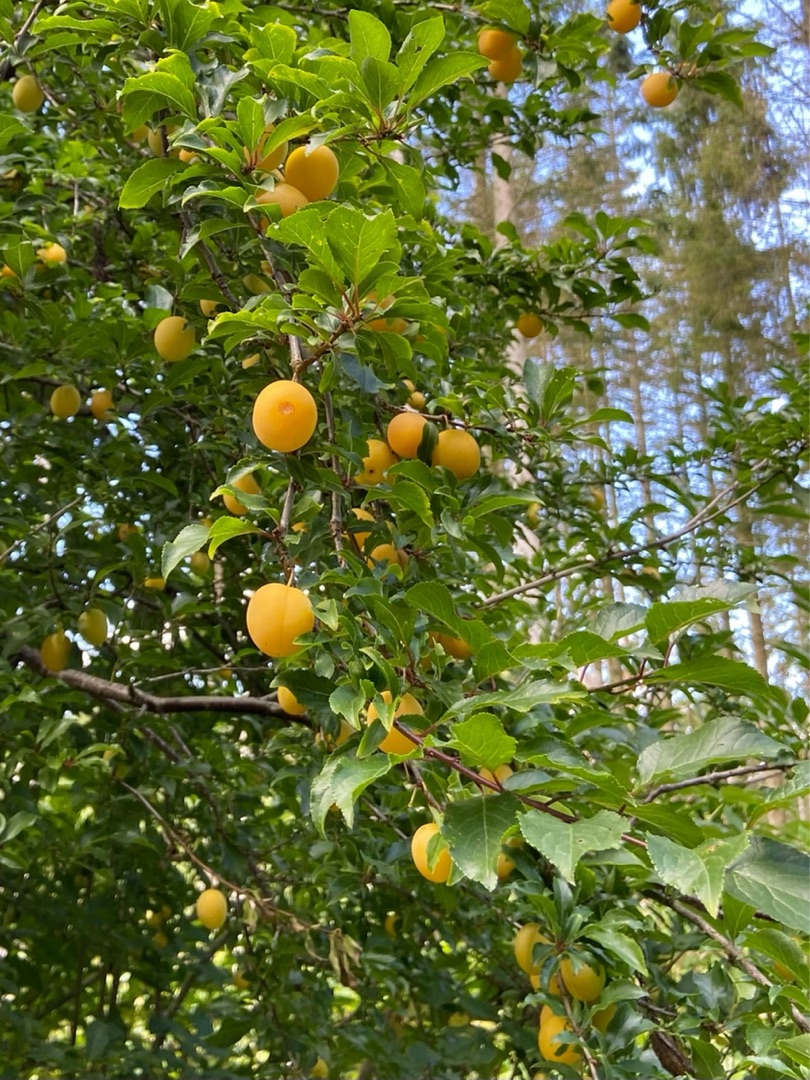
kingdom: Plantae
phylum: Tracheophyta
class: Magnoliopsida
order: Rosales
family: Rosaceae
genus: Prunus
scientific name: Prunus
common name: Blommeslægten
